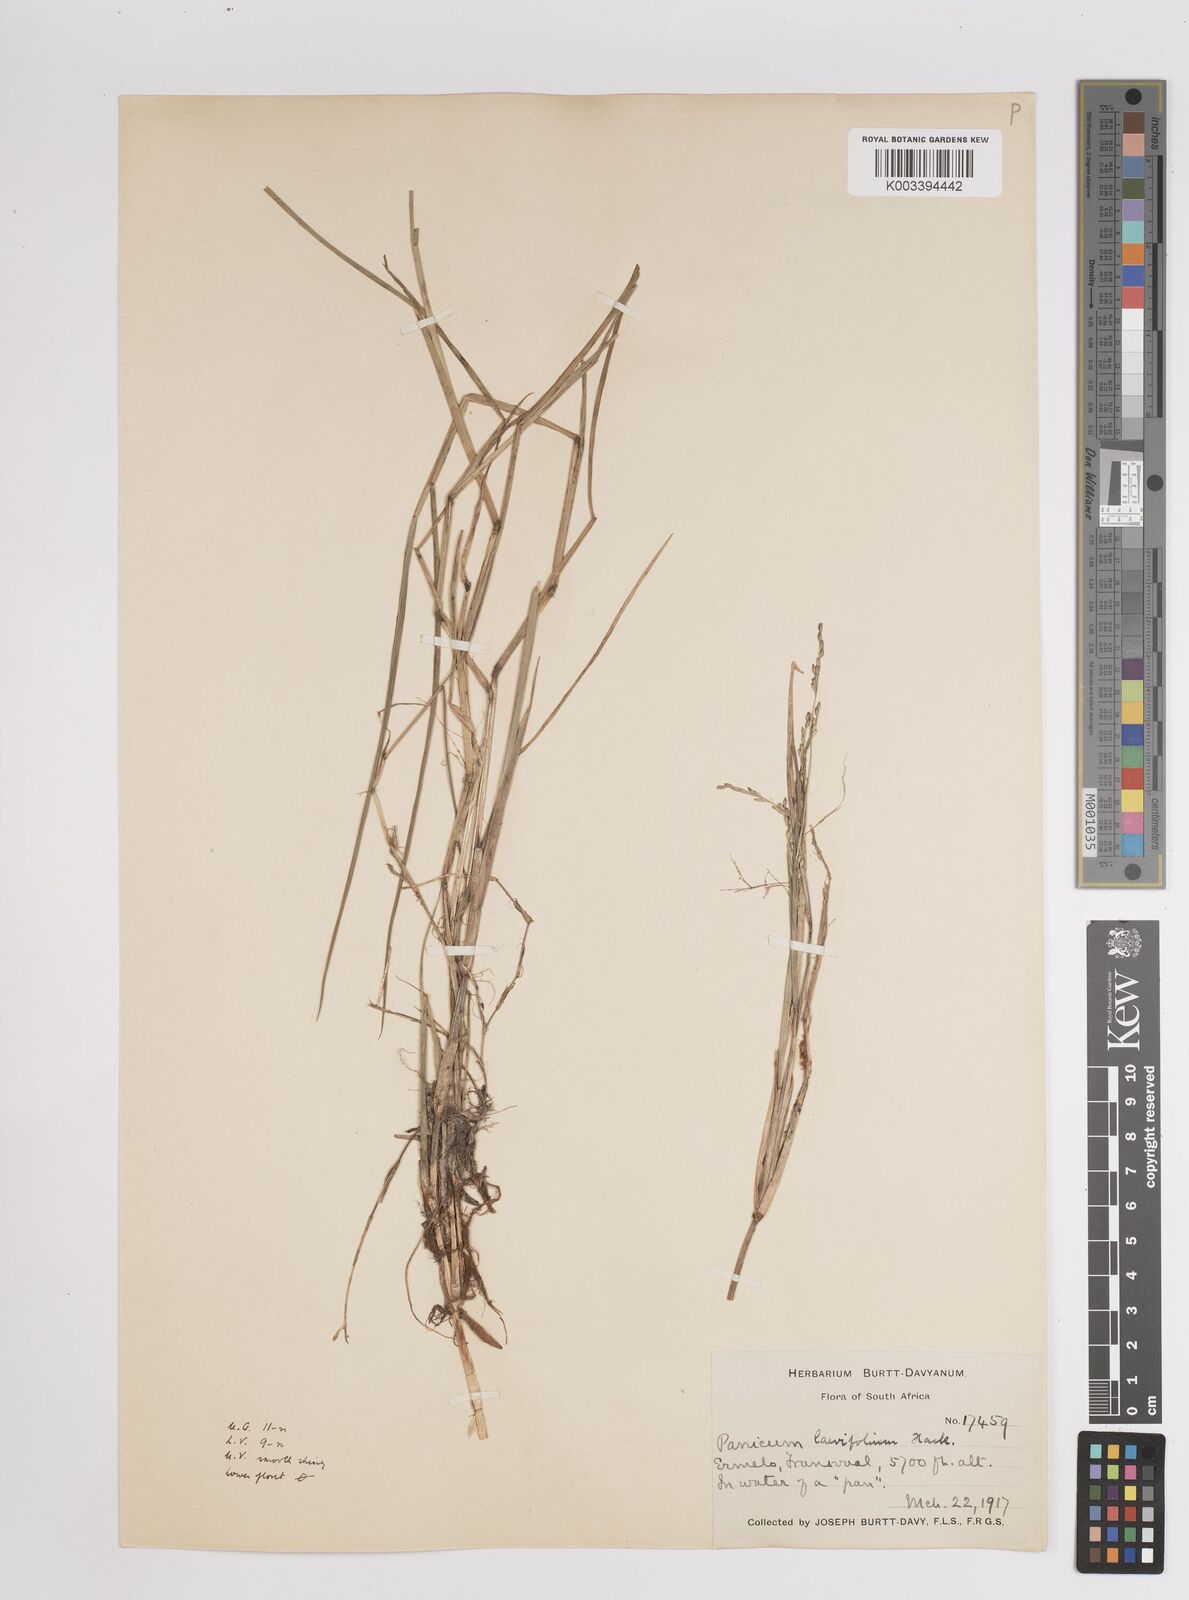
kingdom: Plantae
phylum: Tracheophyta
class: Liliopsida
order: Poales
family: Poaceae
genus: Panicum
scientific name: Panicum
